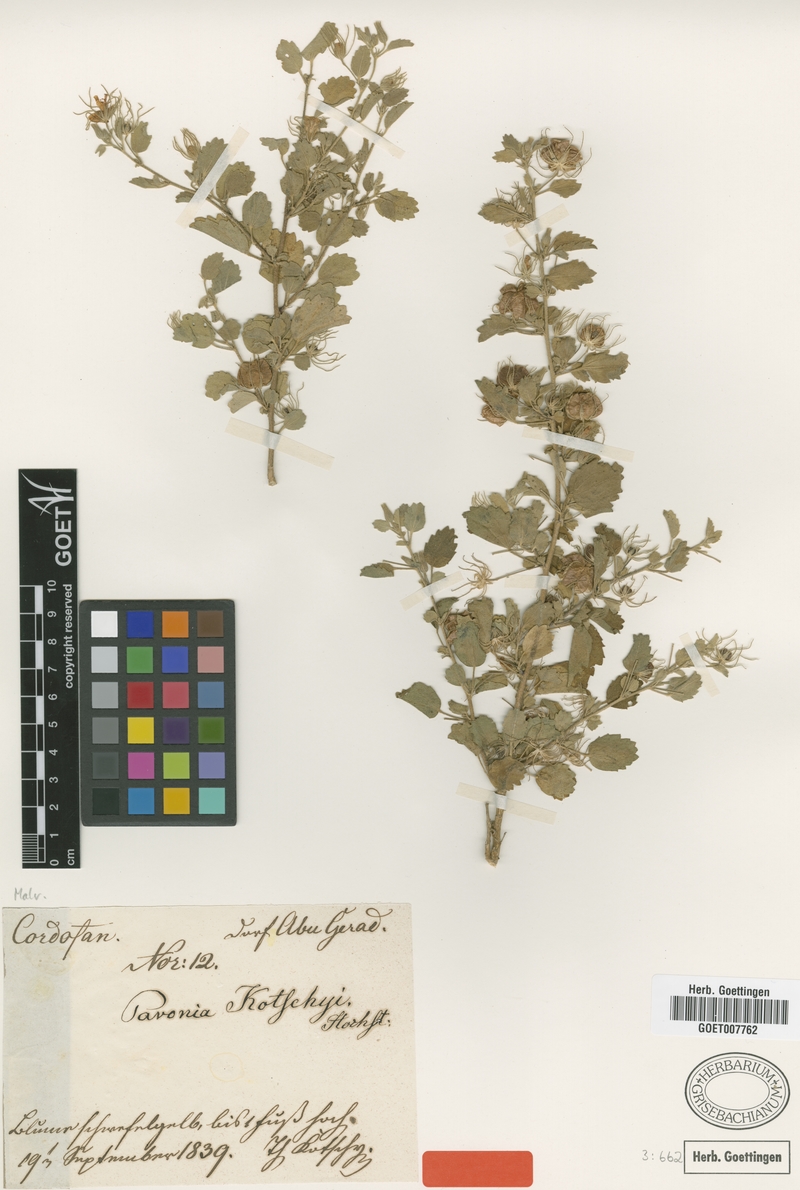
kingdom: Plantae
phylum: Tracheophyta
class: Magnoliopsida
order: Malvales
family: Malvaceae
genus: Pavonia
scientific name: Pavonia kotschyi
